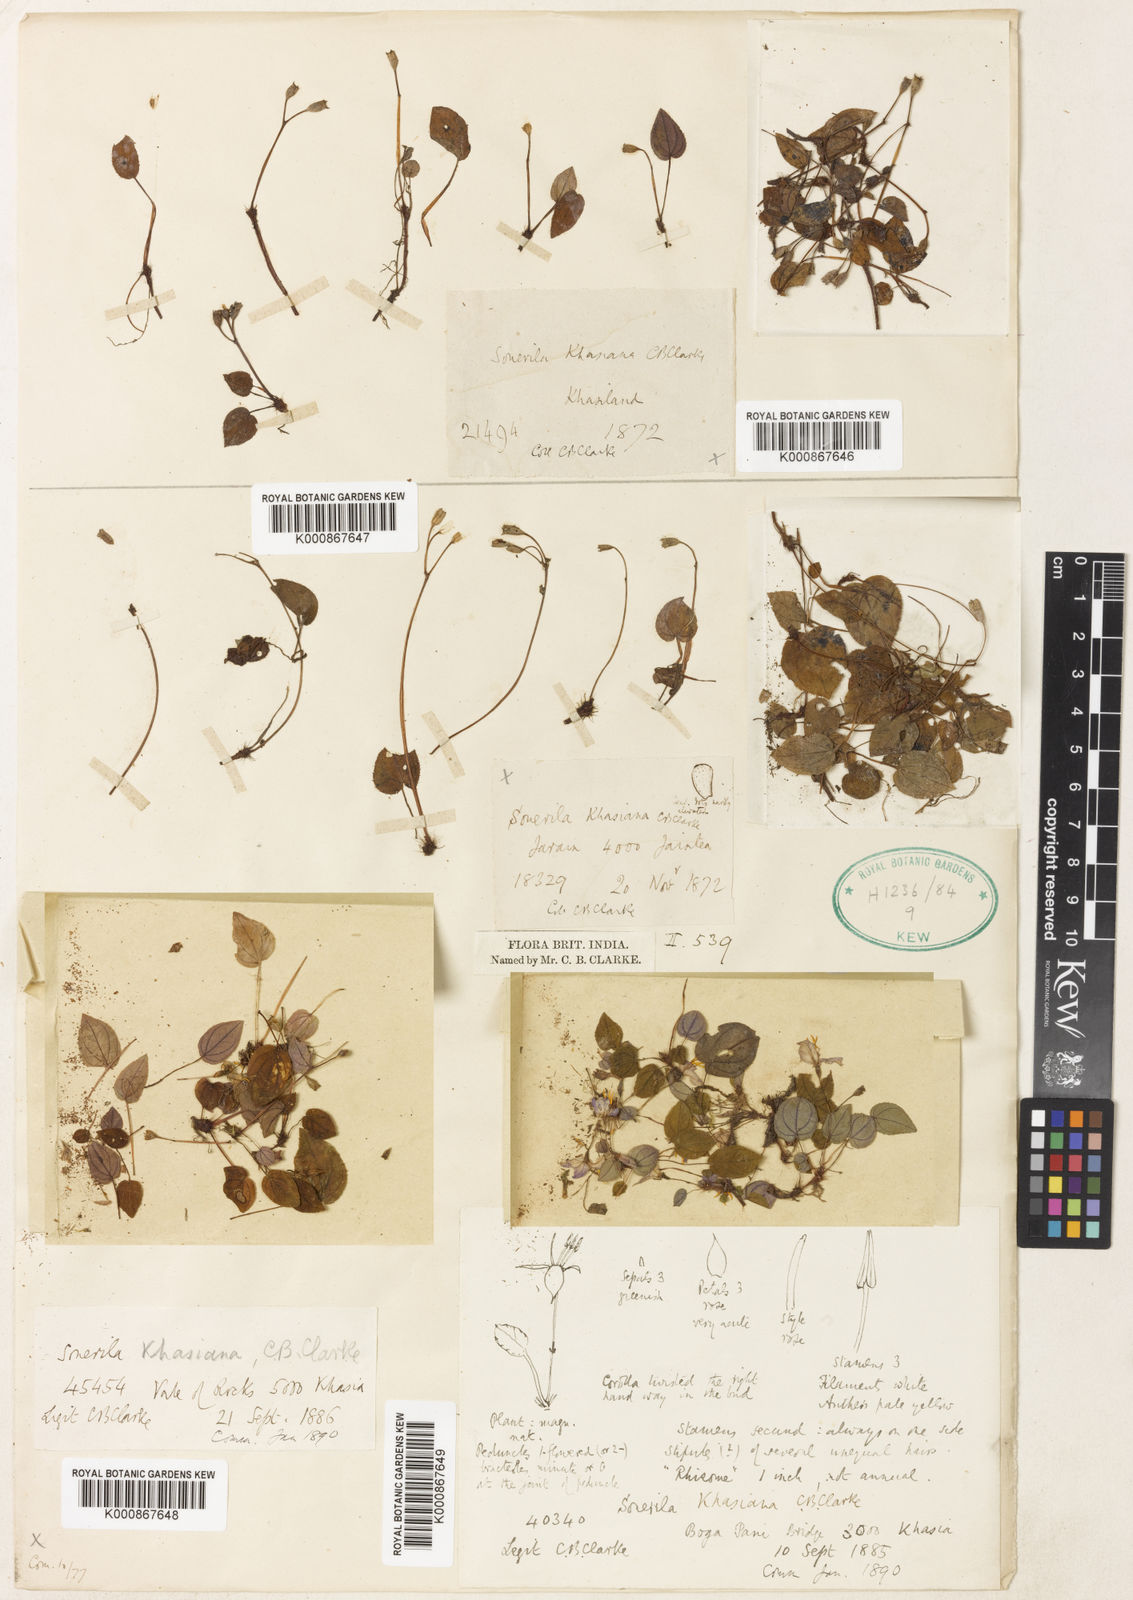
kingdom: Plantae
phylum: Tracheophyta
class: Magnoliopsida
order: Myrtales
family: Melastomataceae
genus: Sonerila
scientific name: Sonerila khasiana
